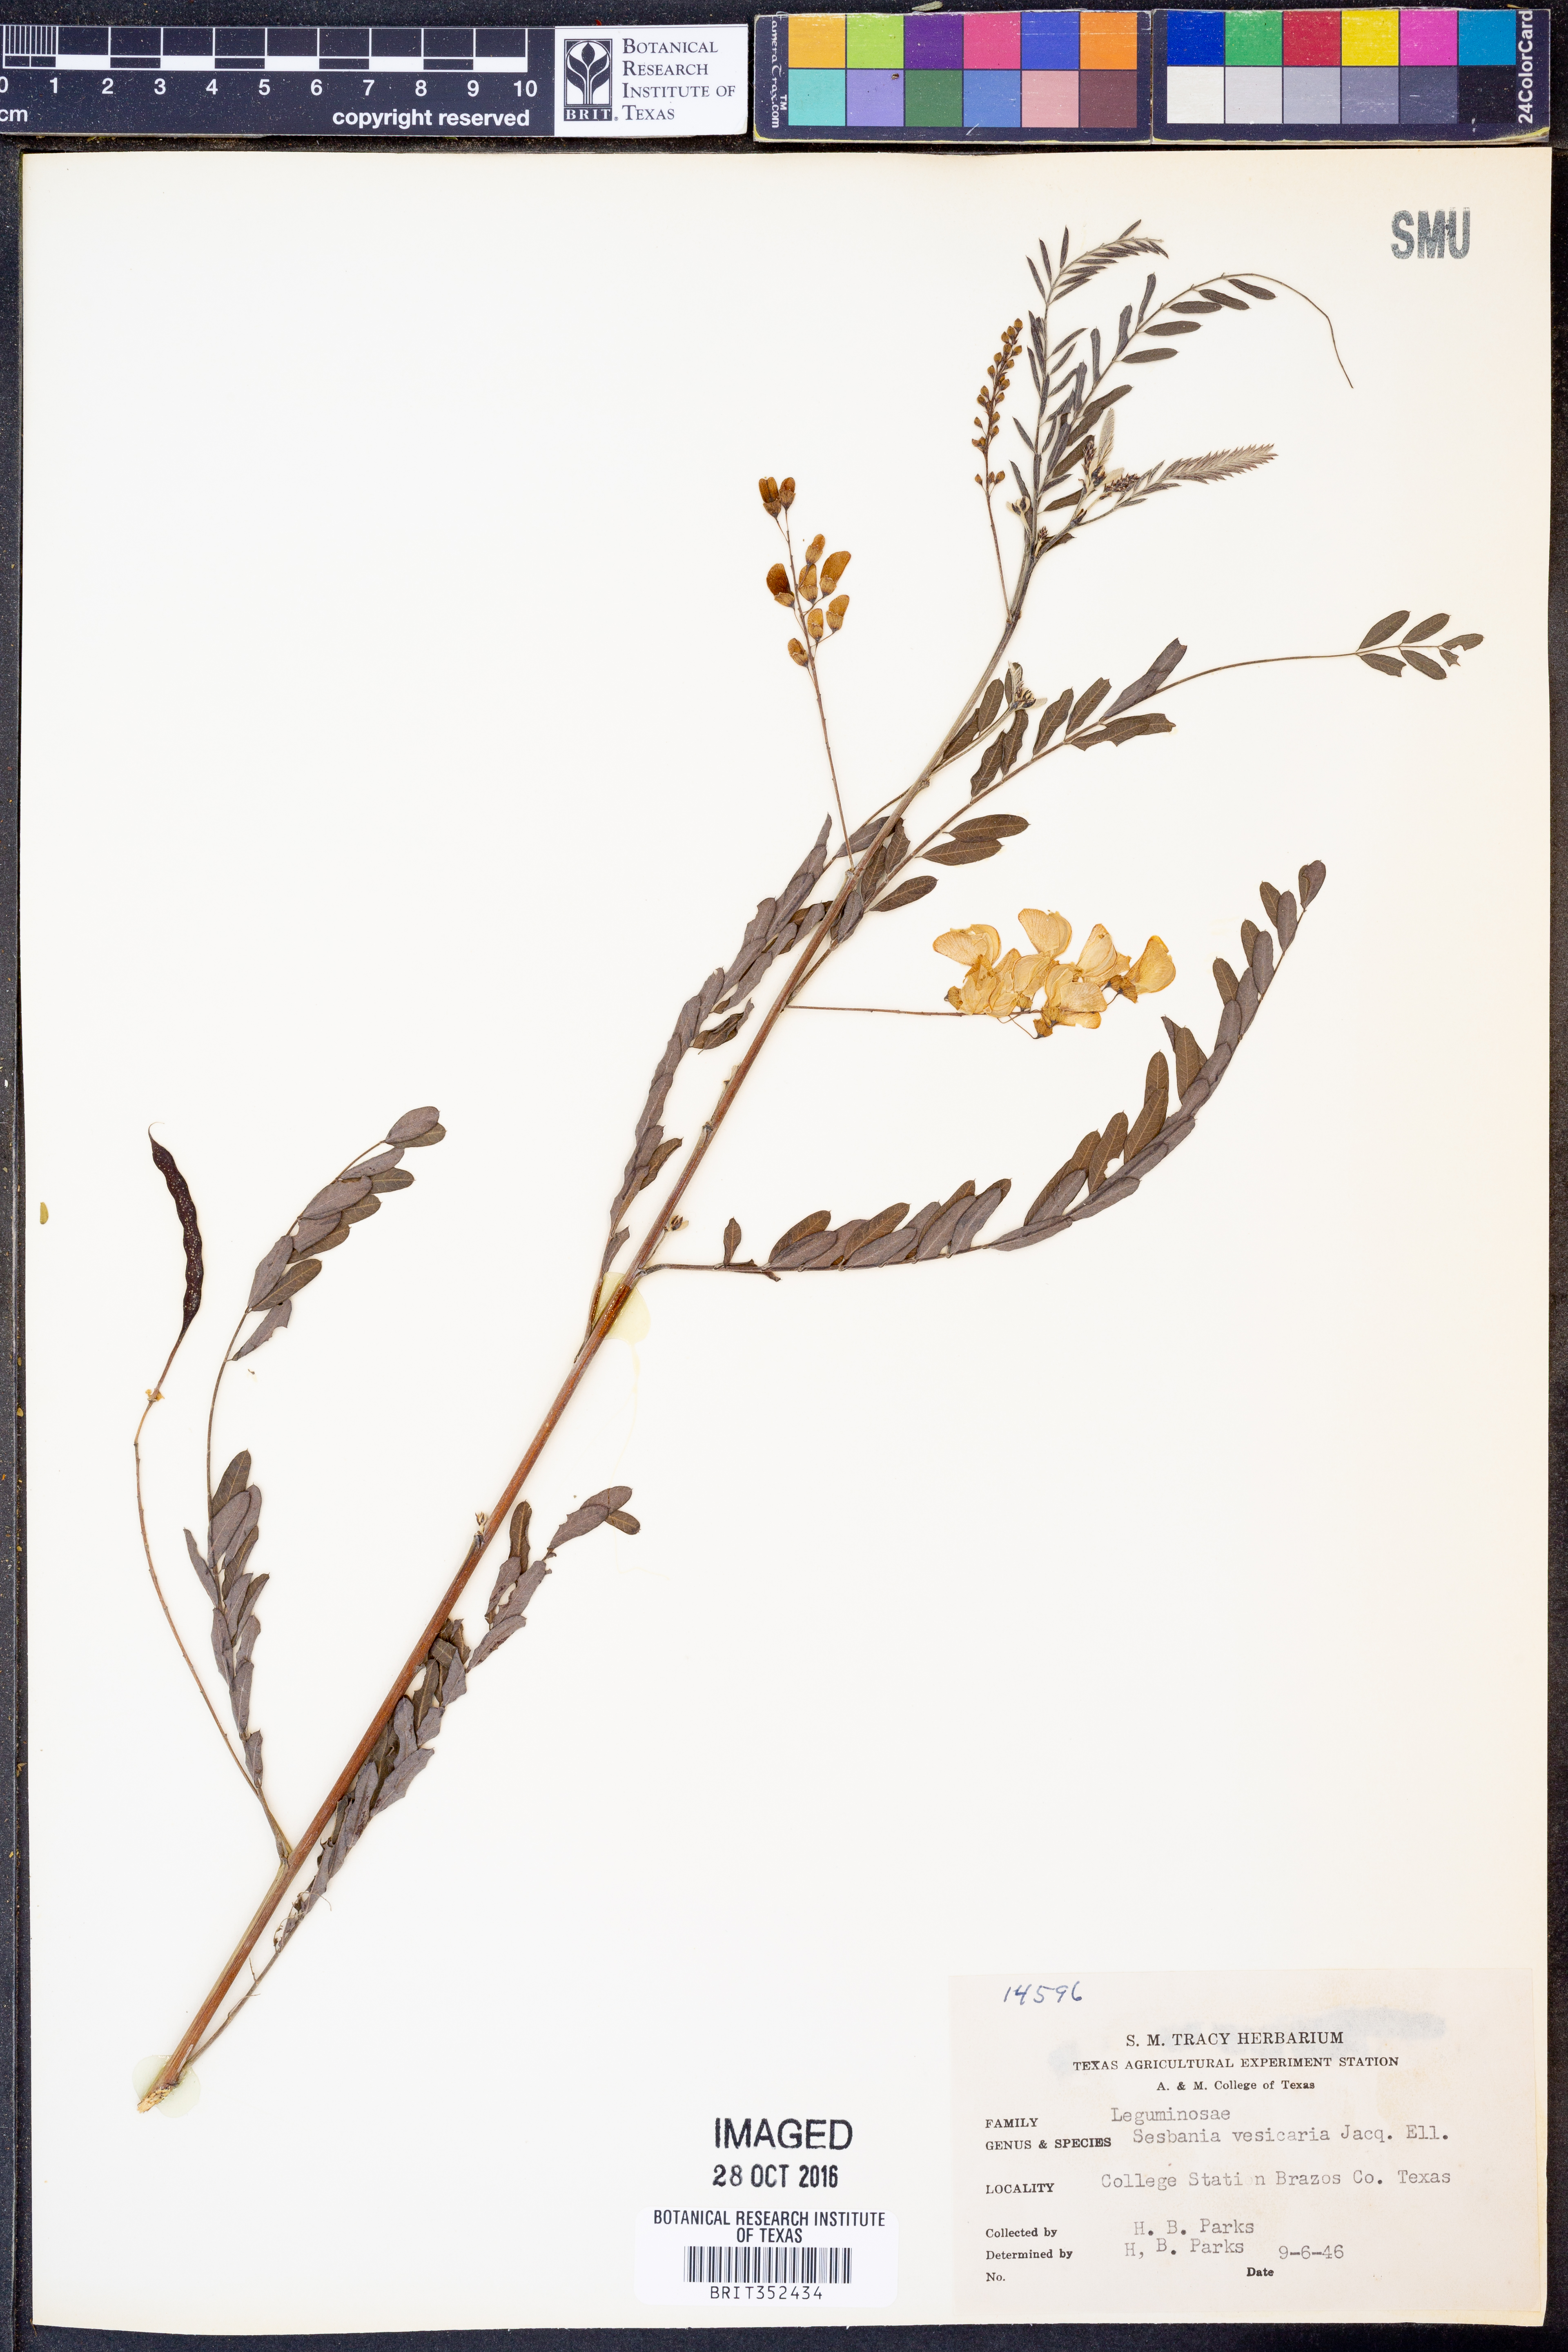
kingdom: Plantae
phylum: Tracheophyta
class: Magnoliopsida
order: Fabales
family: Fabaceae
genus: Sesbania
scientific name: Sesbania vesicaria
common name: Bagpod
